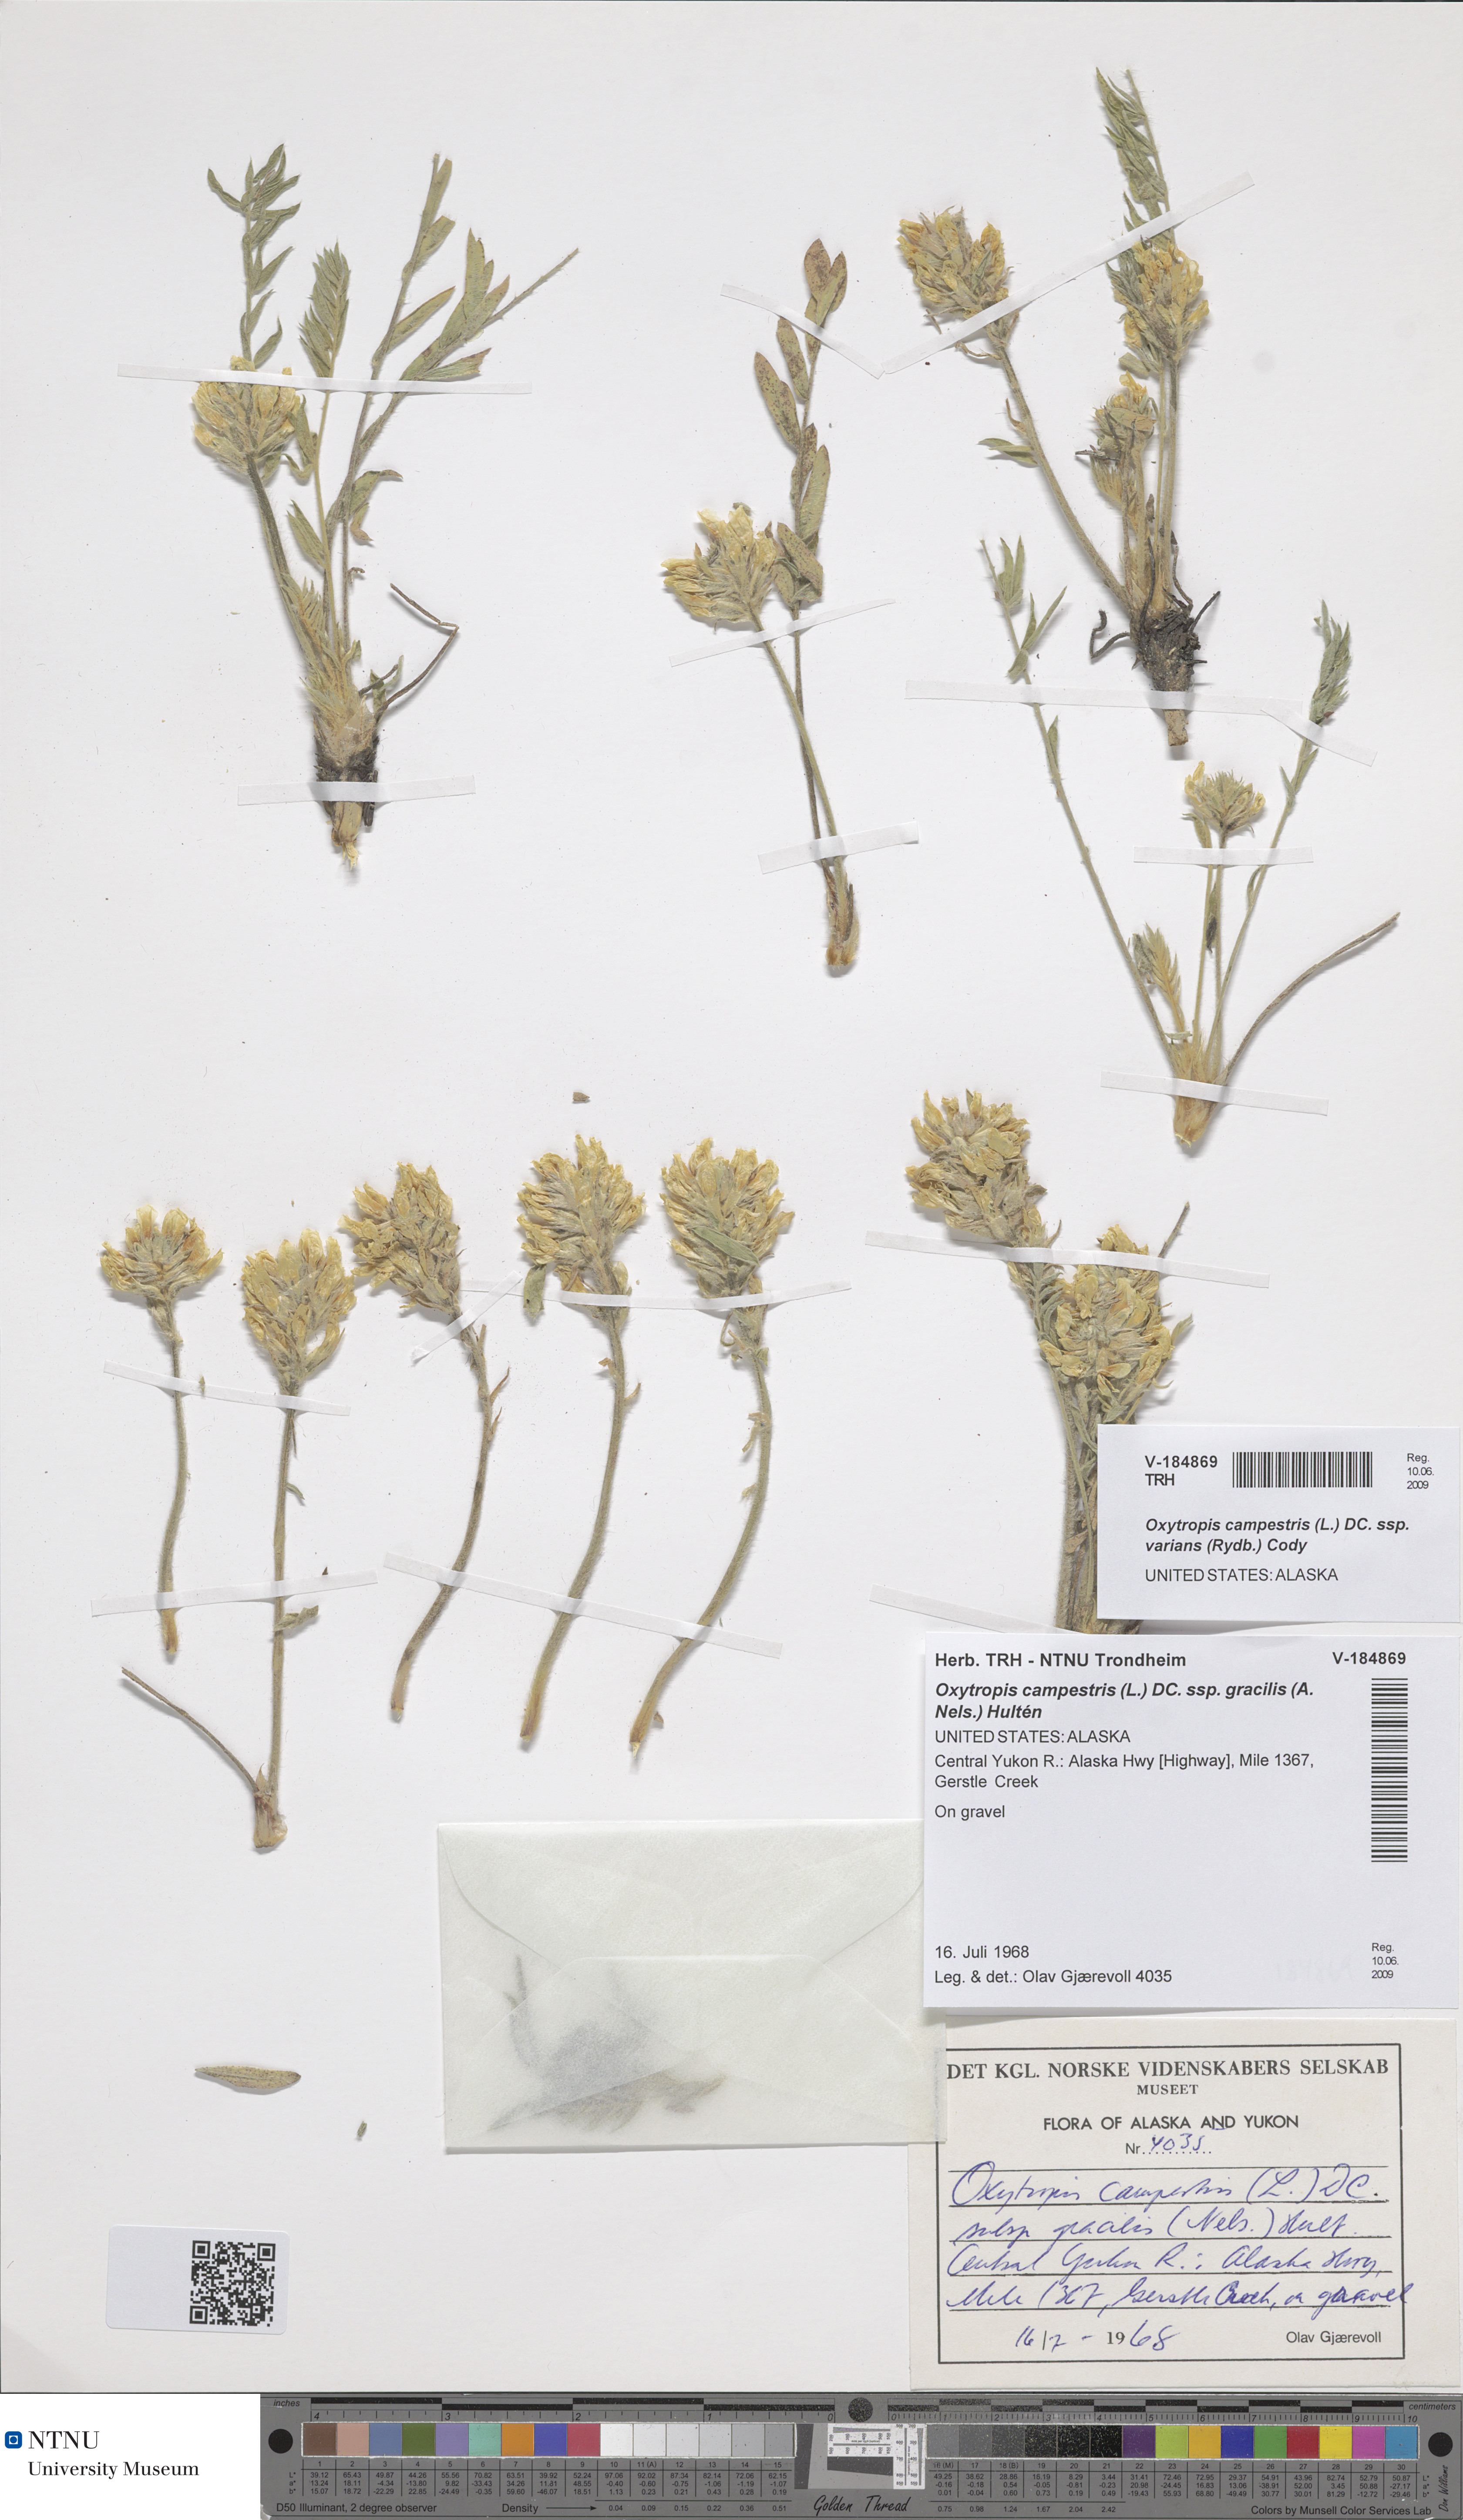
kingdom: Plantae
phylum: Tracheophyta
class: Magnoliopsida
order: Fabales
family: Fabaceae
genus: Oxytropis
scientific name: Oxytropis campestris
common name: Field locoweed
